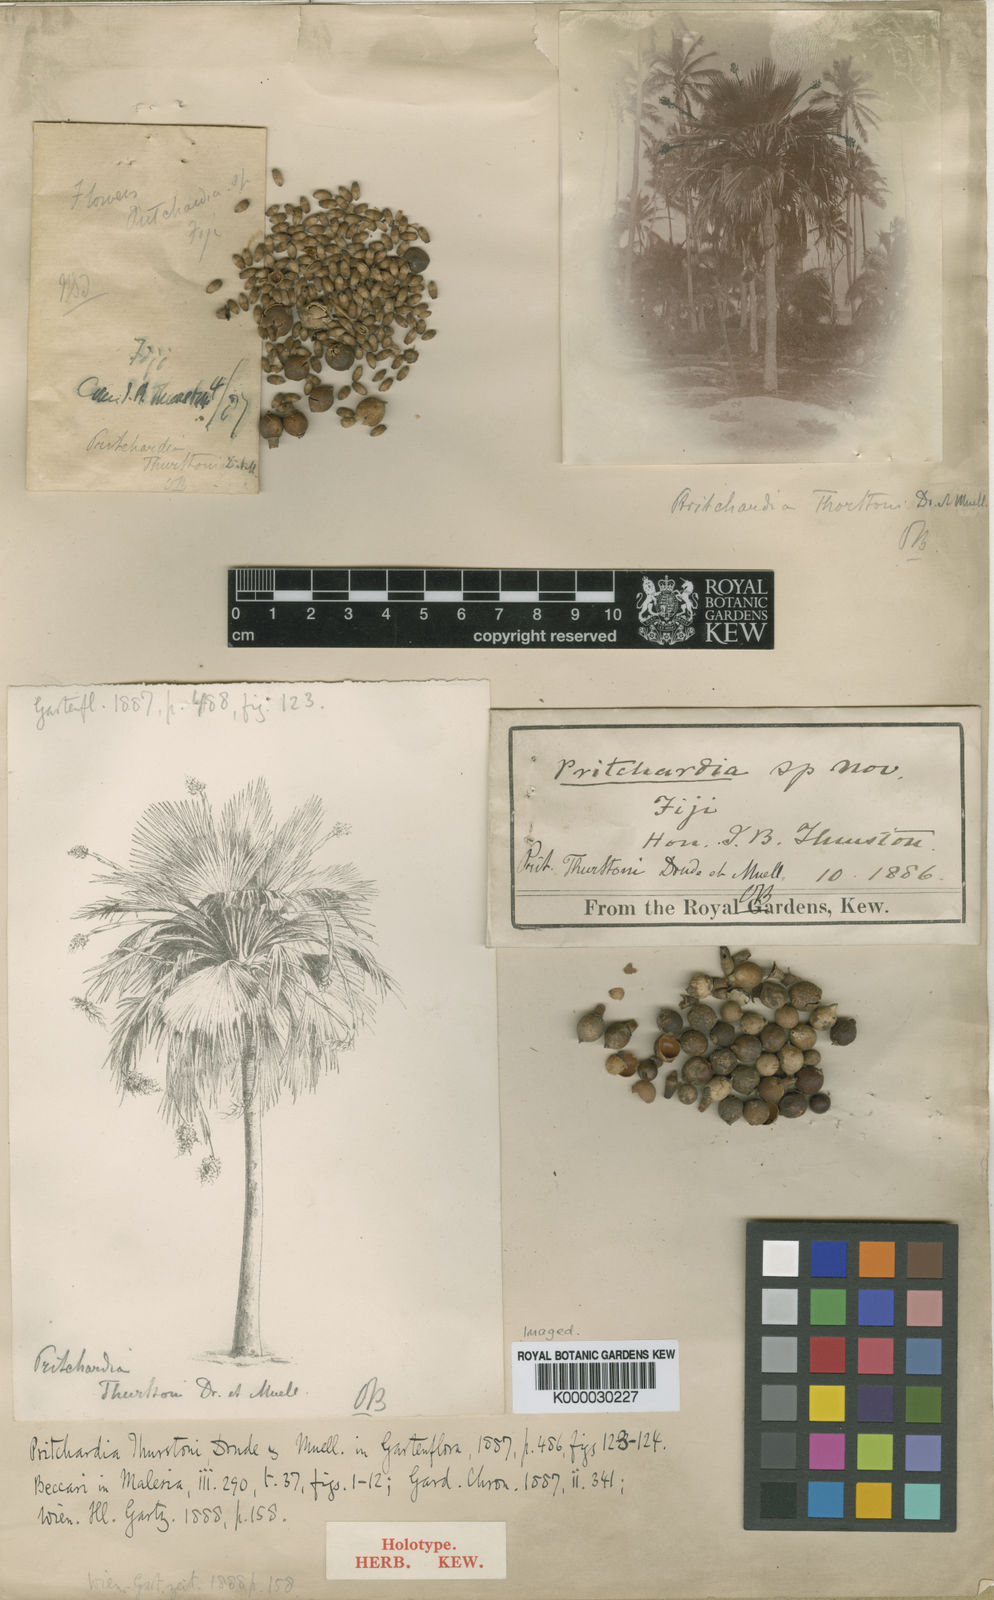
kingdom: Plantae
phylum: Tracheophyta
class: Liliopsida
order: Arecales
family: Arecaceae
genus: Pritchardia
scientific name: Pritchardia thurstonii
